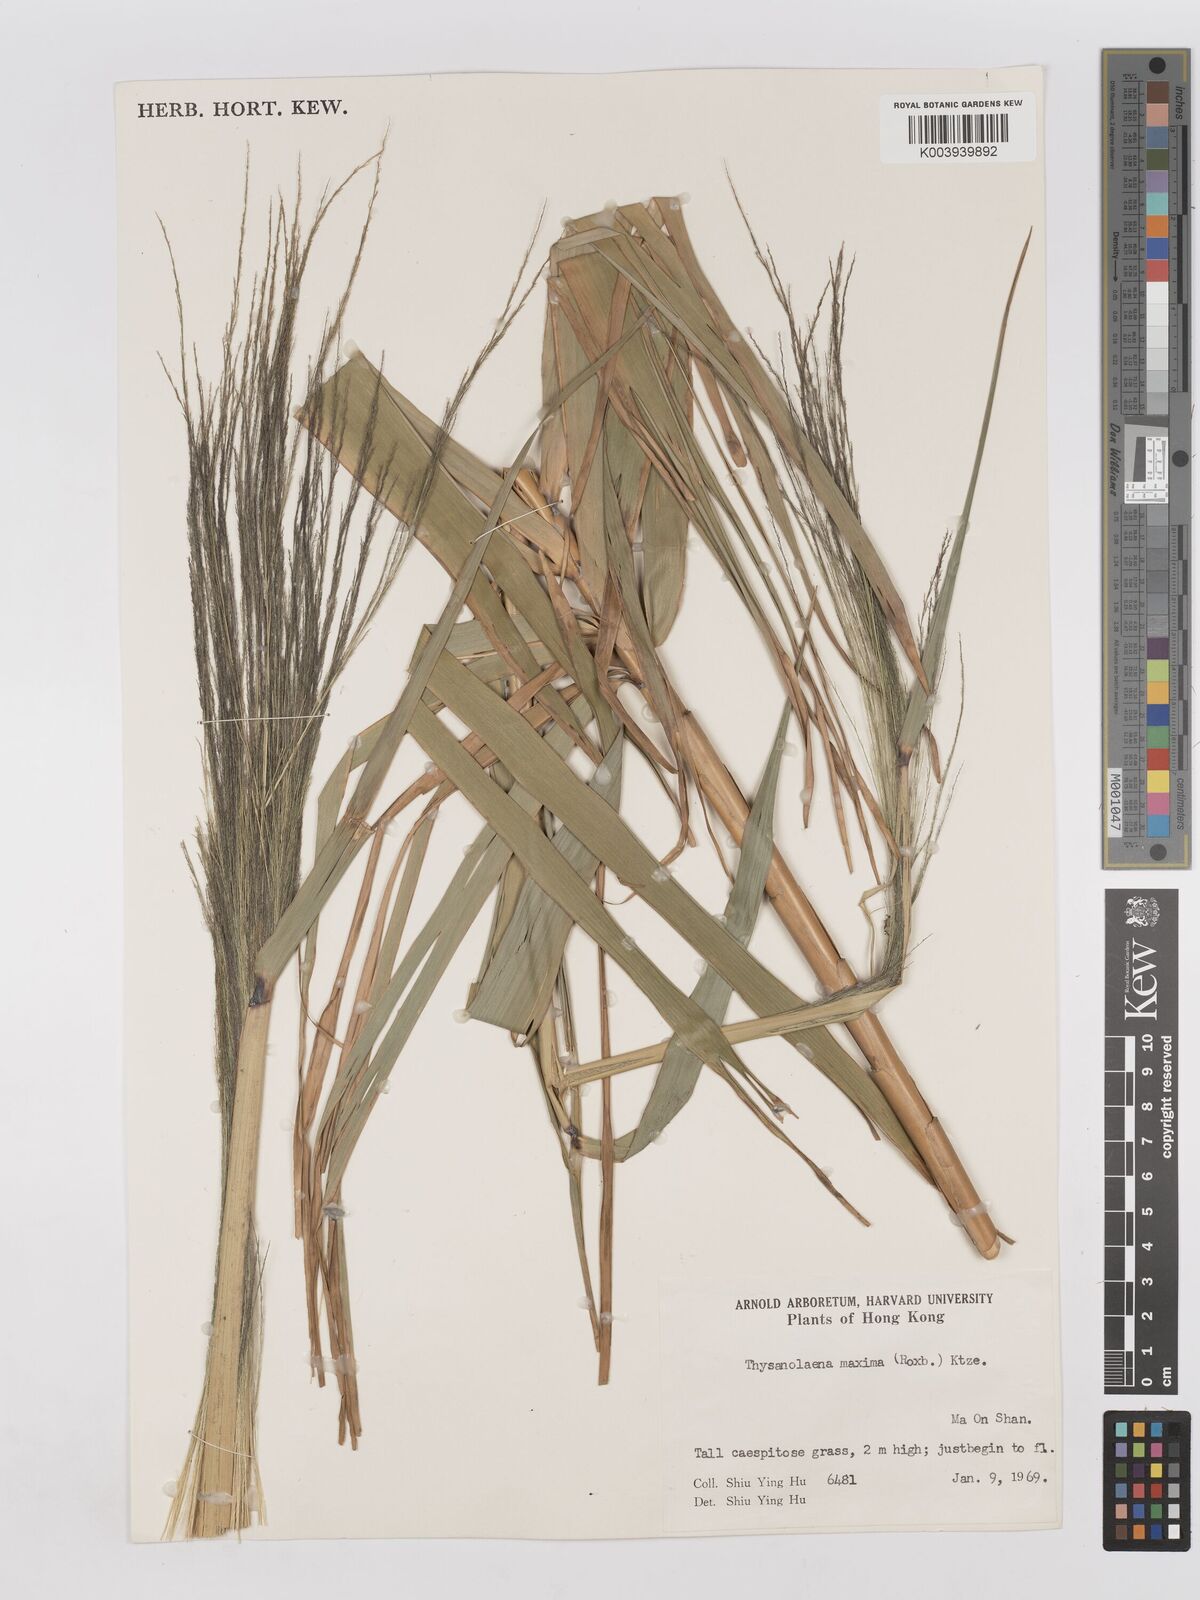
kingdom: Plantae
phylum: Tracheophyta
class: Liliopsida
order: Poales
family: Poaceae
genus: Thysanolaena
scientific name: Thysanolaena latifolia
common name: Tiger grass
